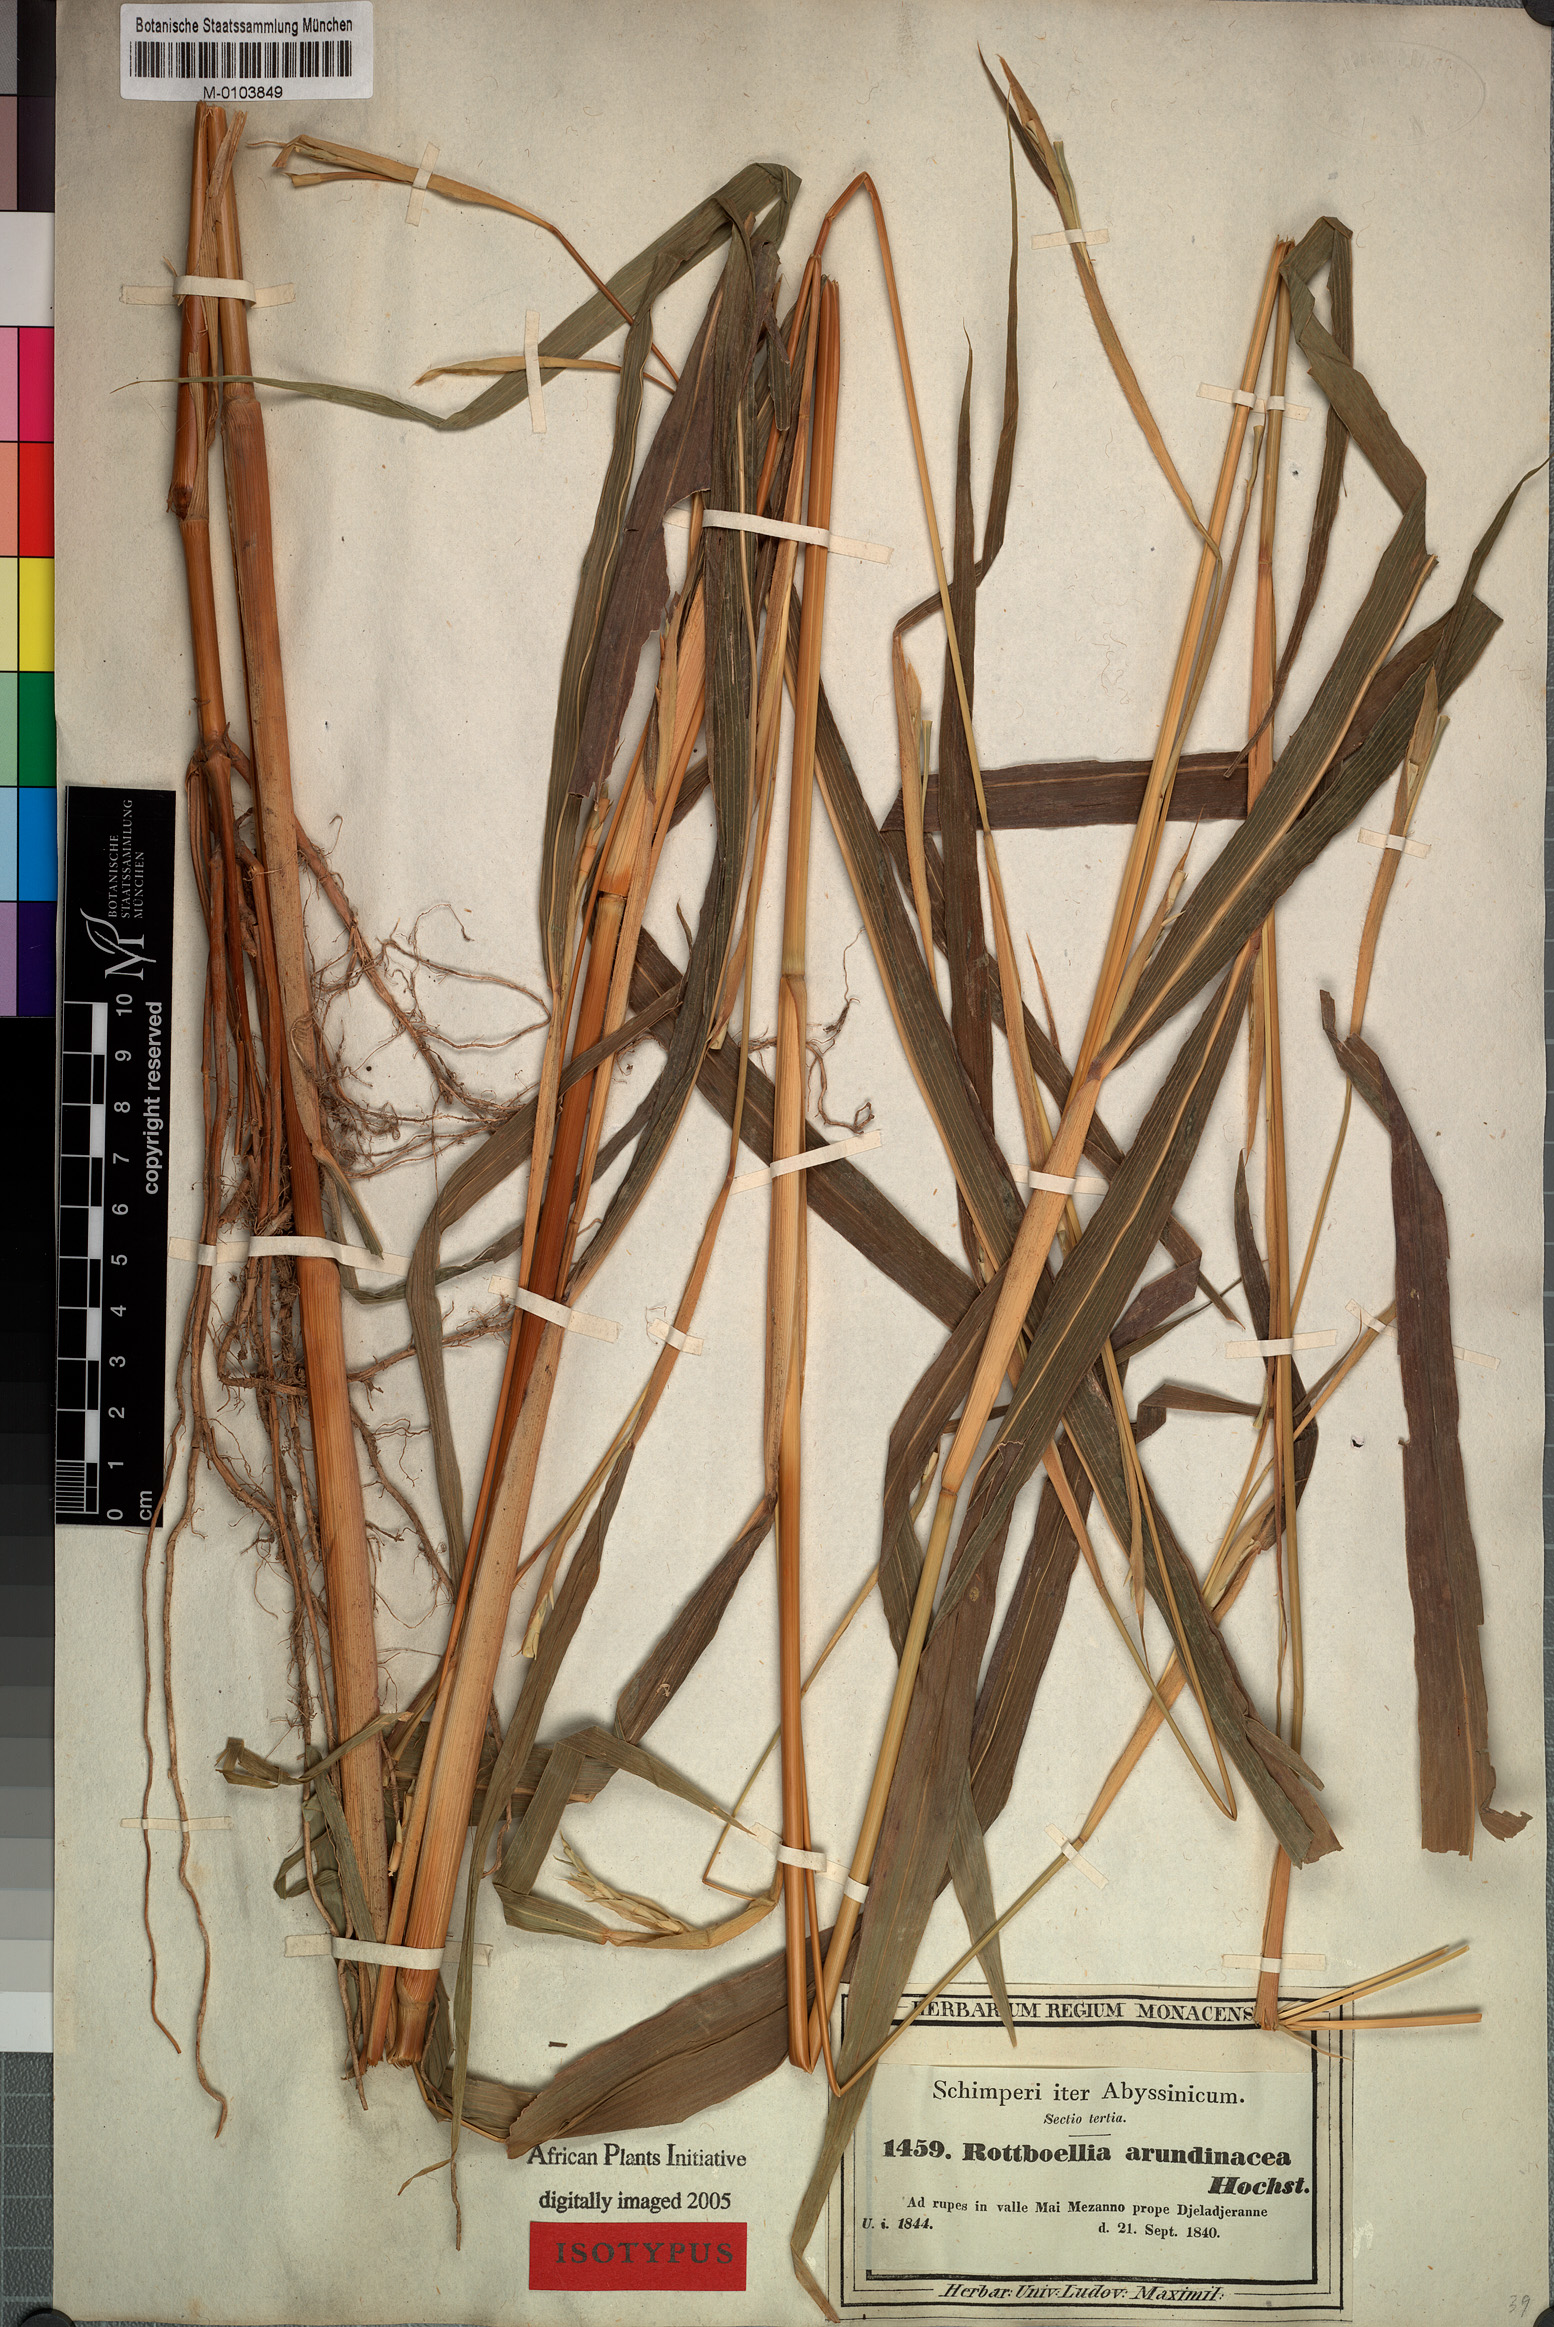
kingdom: Plantae
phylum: Tracheophyta
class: Liliopsida
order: Poales
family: Poaceae
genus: Rottboellia
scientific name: Rottboellia cochinchinensis
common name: Itchgrass
